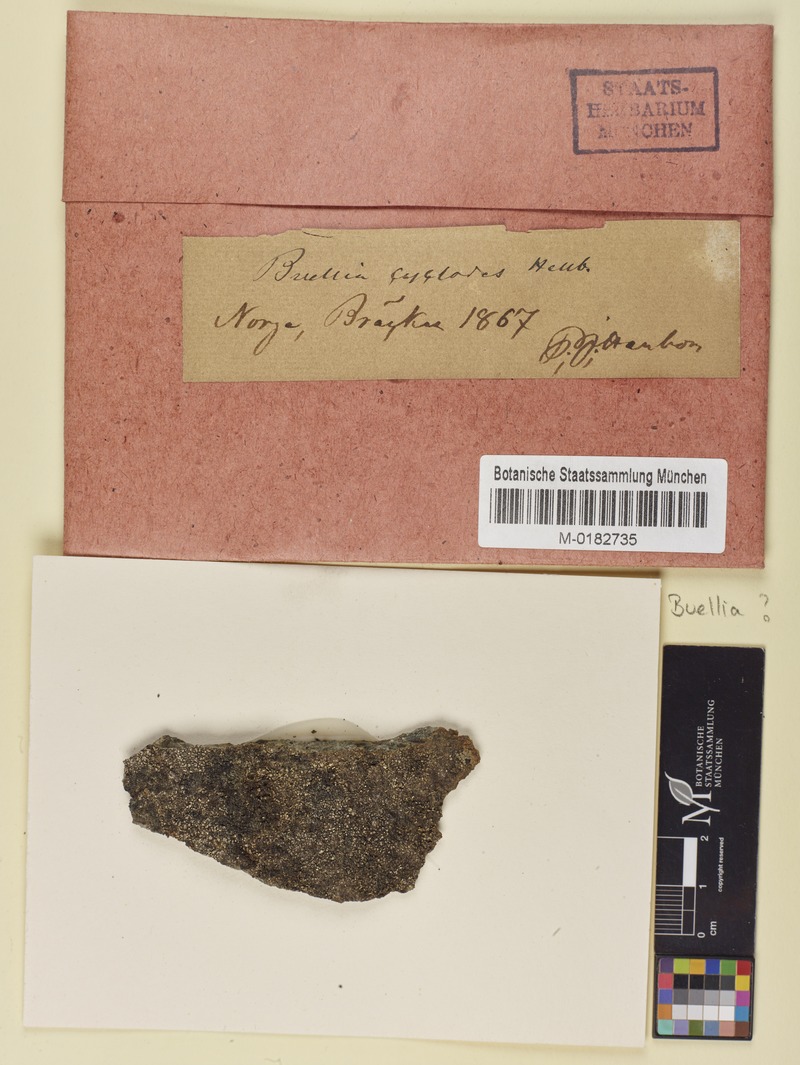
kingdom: Fungi
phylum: Ascomycota
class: Lecanoromycetes
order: Rhizocarpales
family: Rhizocarpaceae
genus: Rhizocarpon
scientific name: Rhizocarpon copelandii
